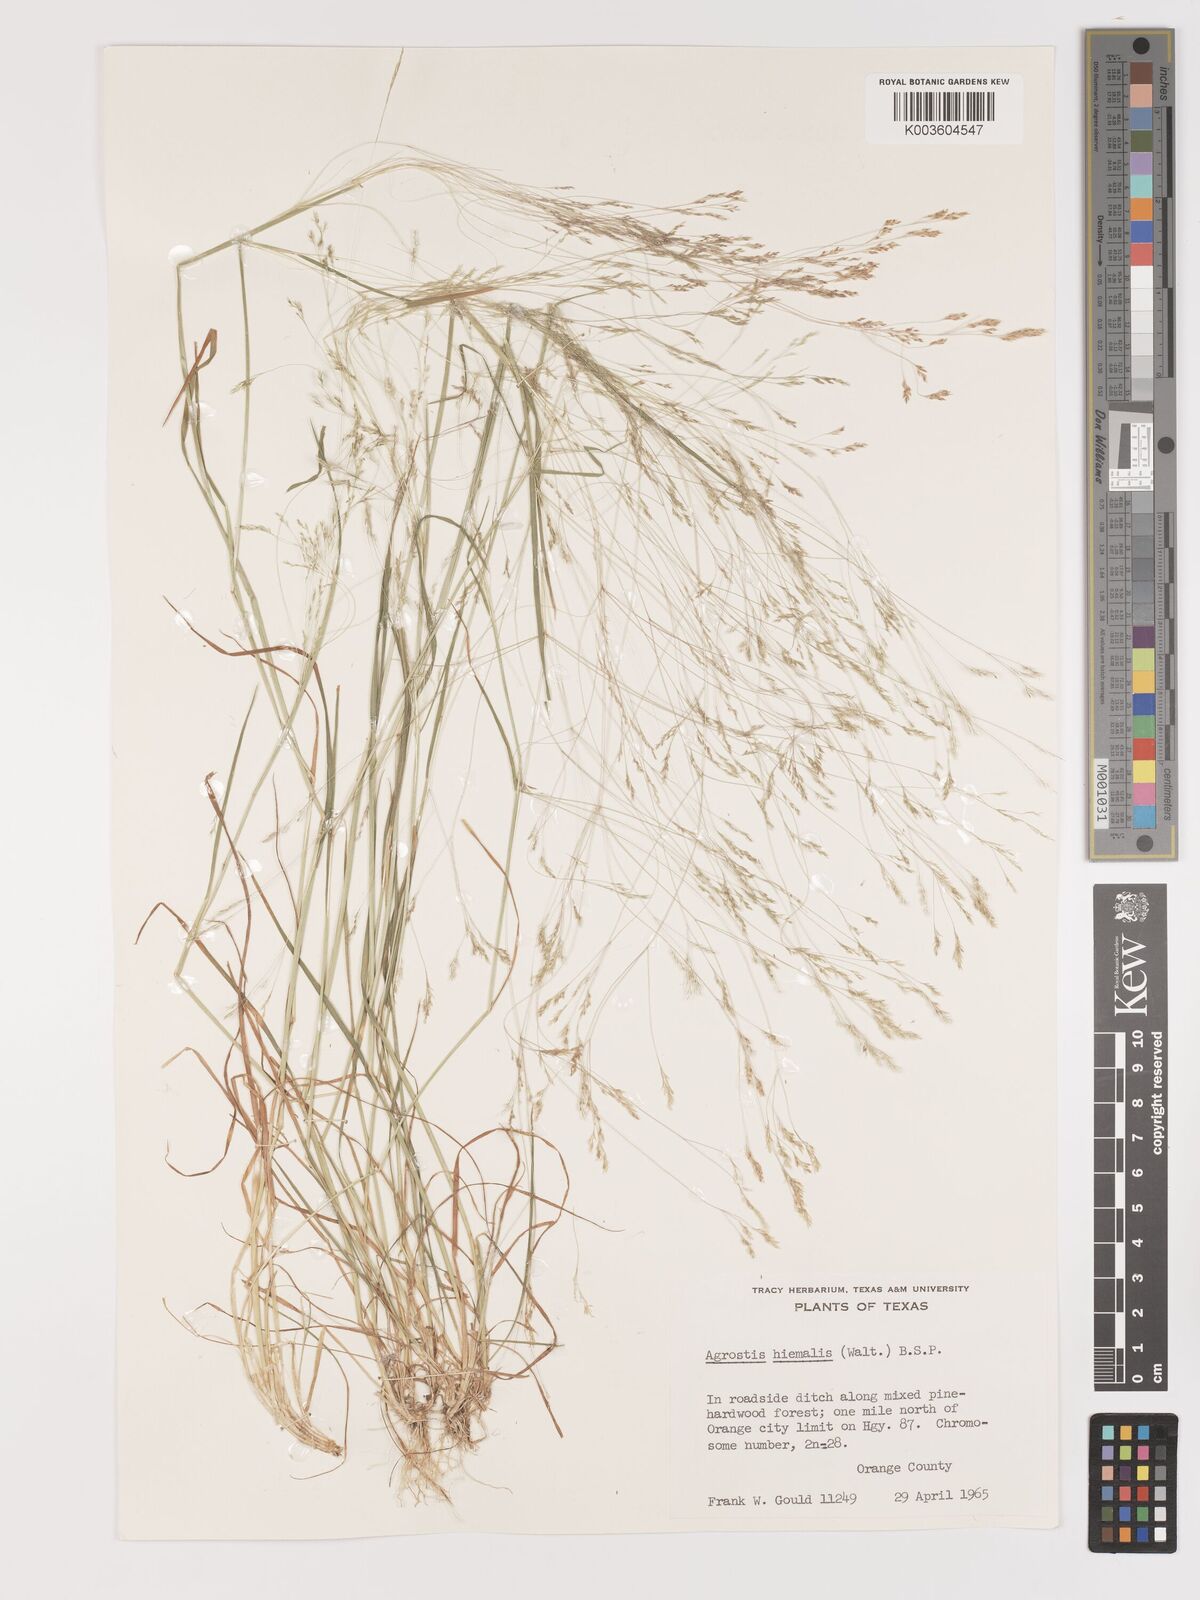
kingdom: Plantae
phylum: Tracheophyta
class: Liliopsida
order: Poales
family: Poaceae
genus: Agrostis
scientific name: Agrostis hyemalis
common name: Small bent
